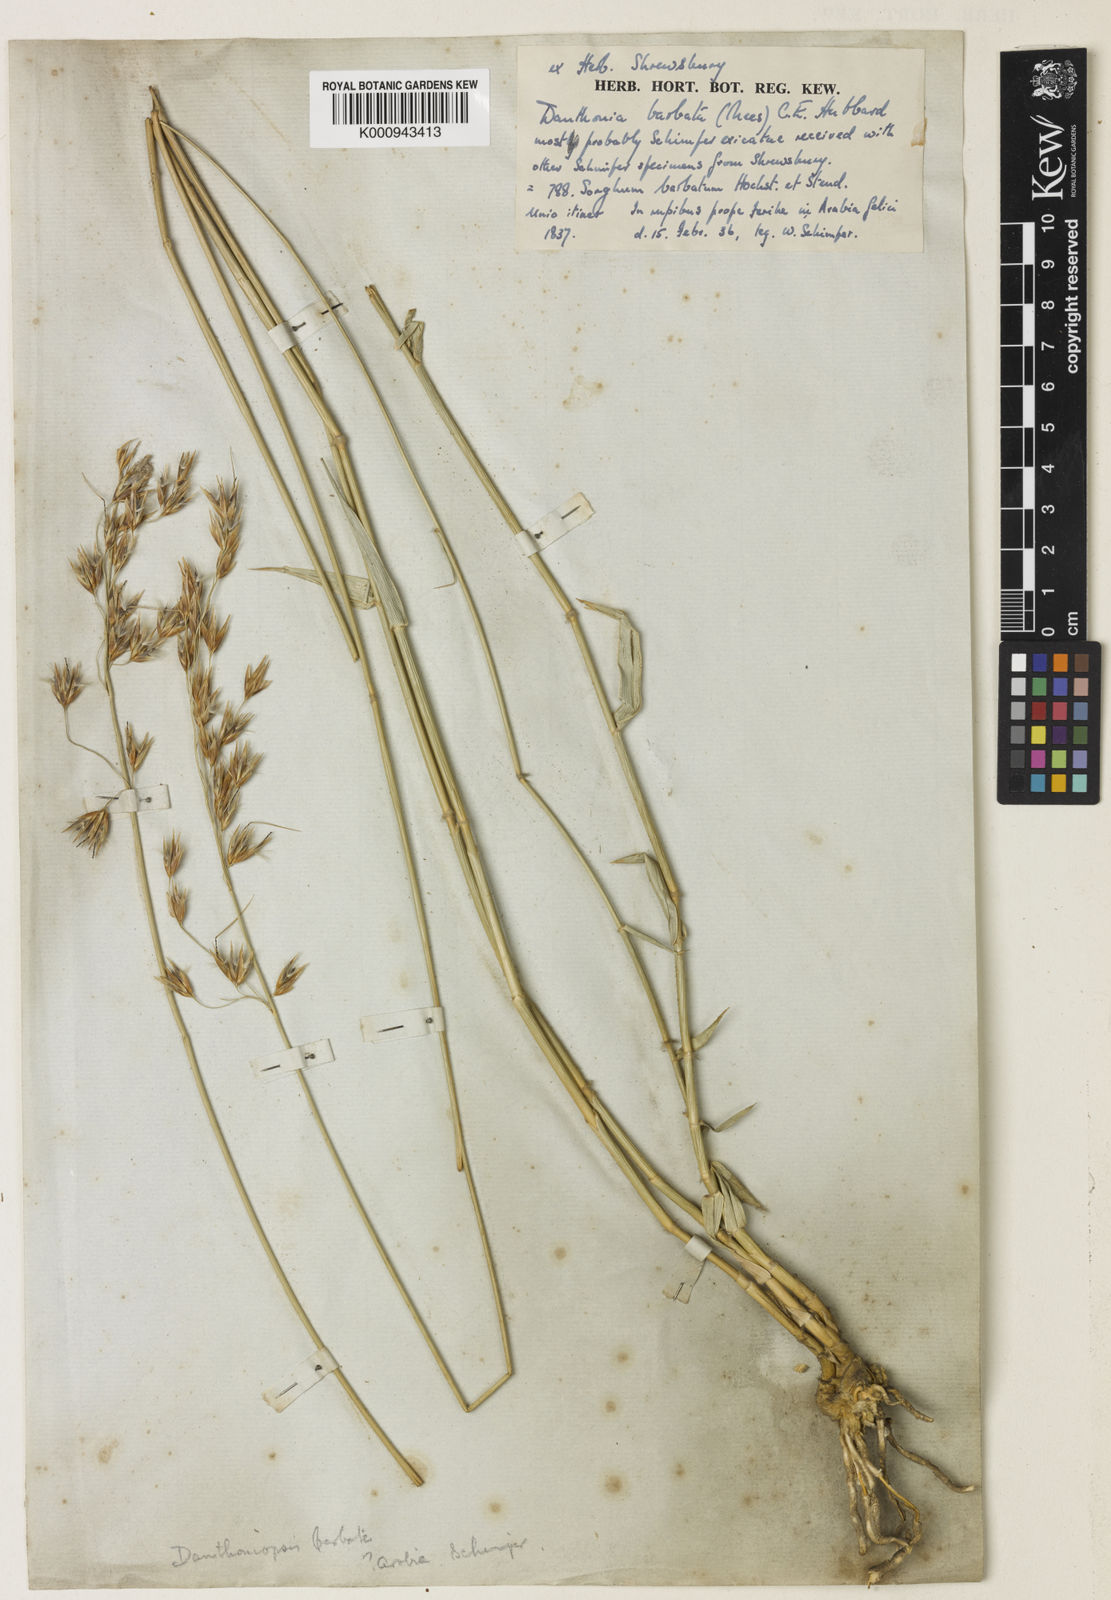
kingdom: Plantae
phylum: Tracheophyta
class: Liliopsida
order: Poales
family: Poaceae
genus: Danthoniopsis
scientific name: Danthoniopsis barbata
